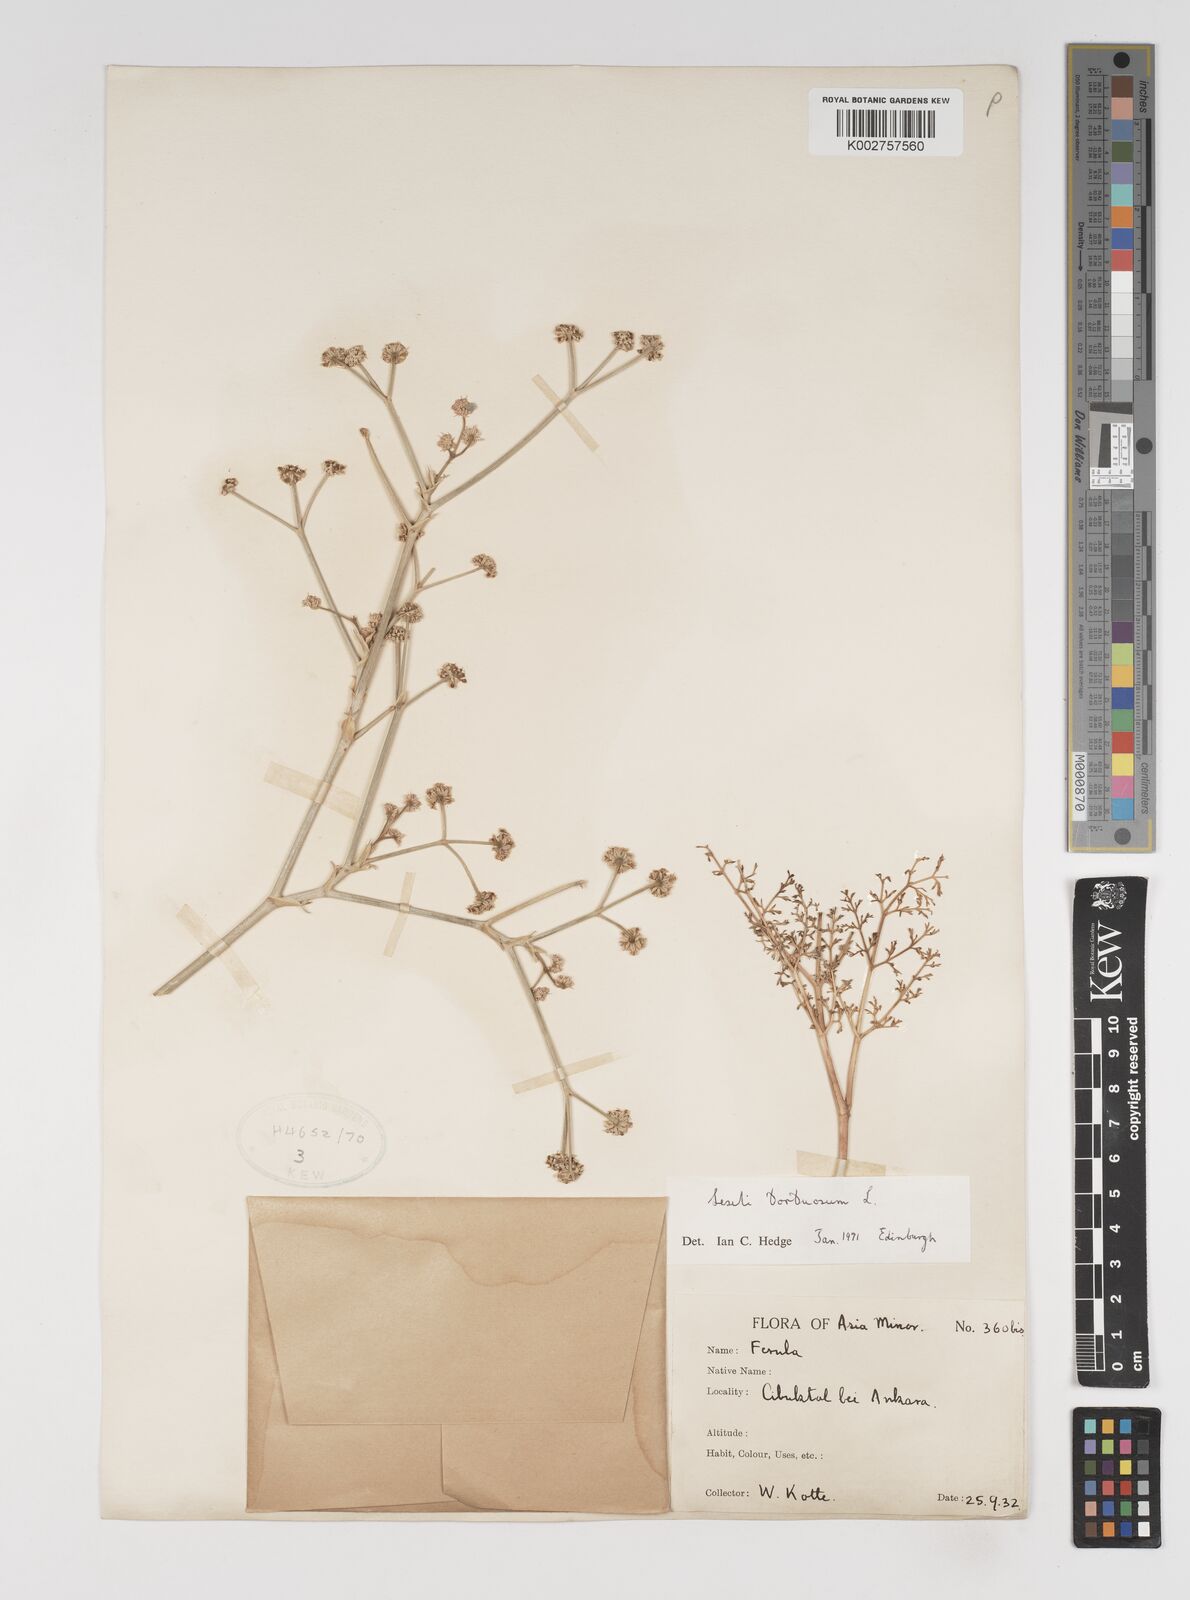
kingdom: Plantae
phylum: Tracheophyta
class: Magnoliopsida
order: Apiales
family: Apiaceae
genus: Seseli
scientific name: Seseli tortuosum
